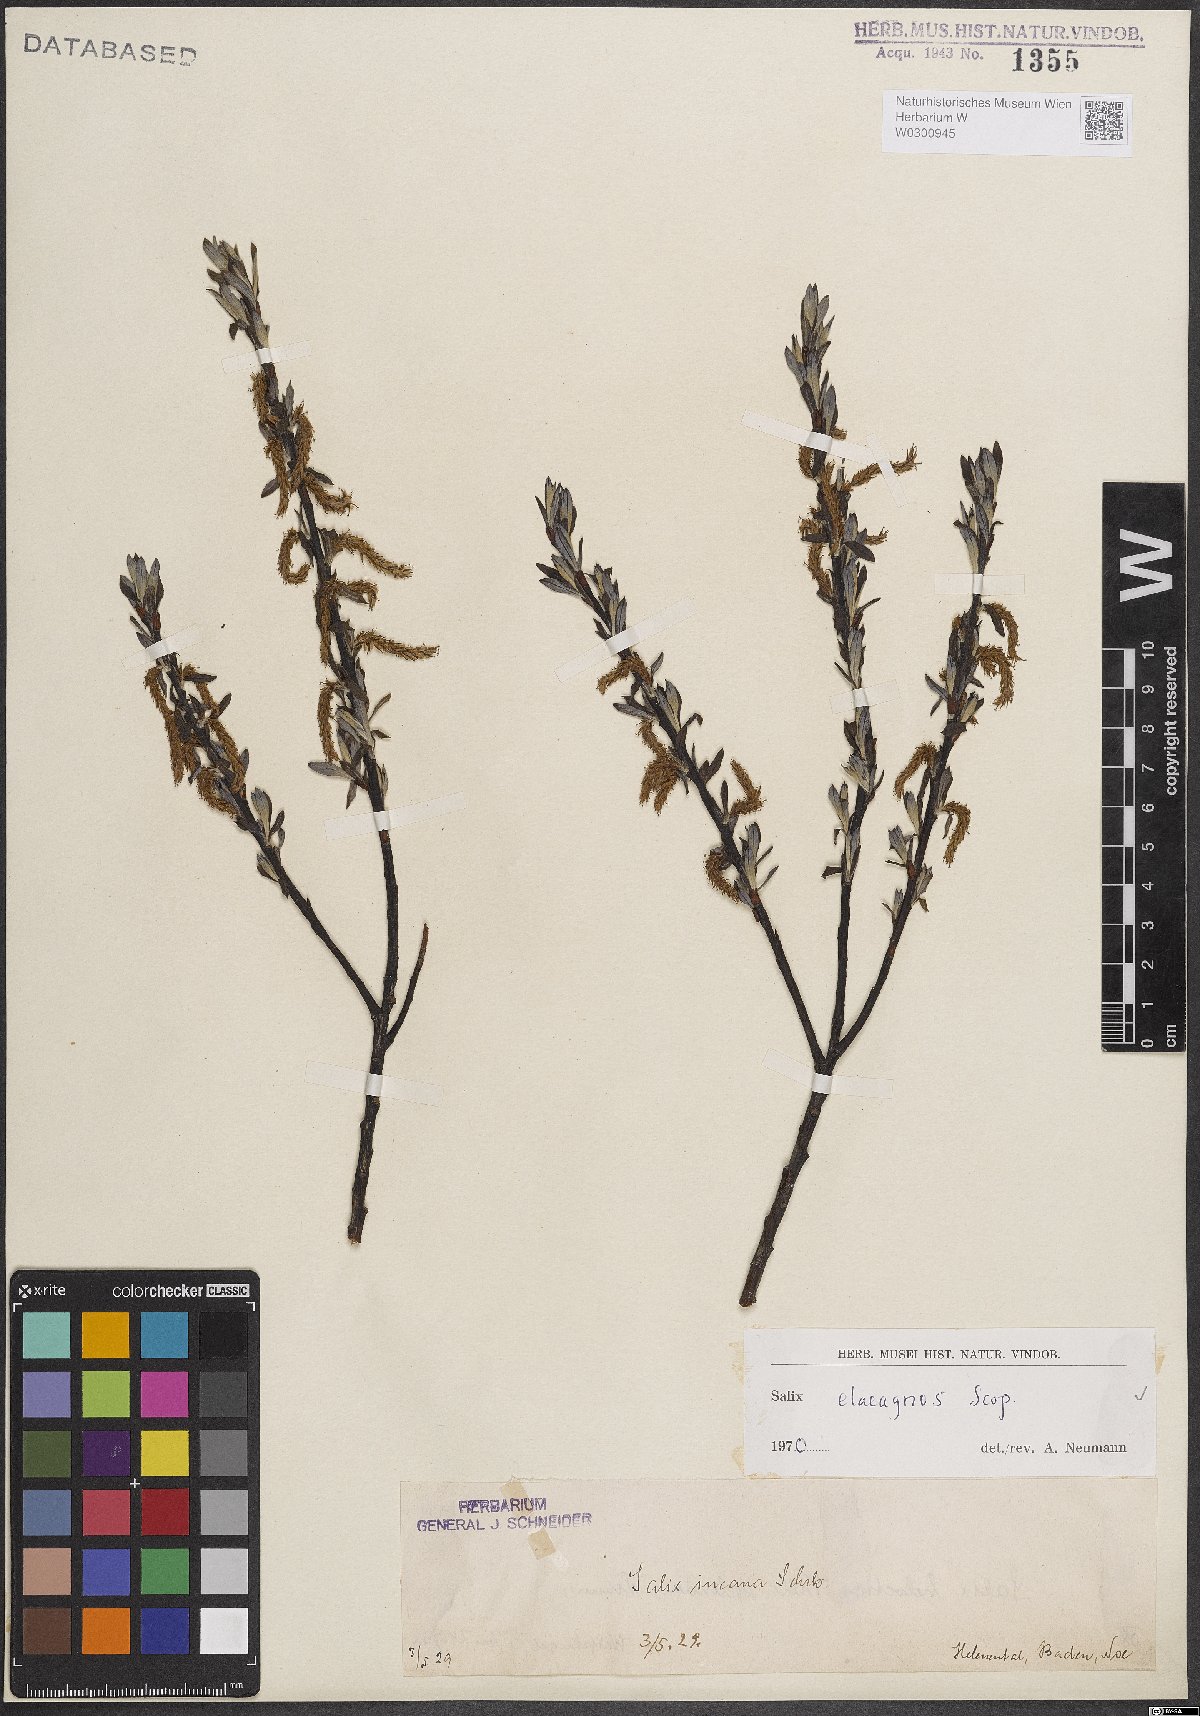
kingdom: Plantae
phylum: Tracheophyta
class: Magnoliopsida
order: Malpighiales
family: Salicaceae
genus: Salix
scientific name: Salix eleagnos
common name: Elaeagnus willow
